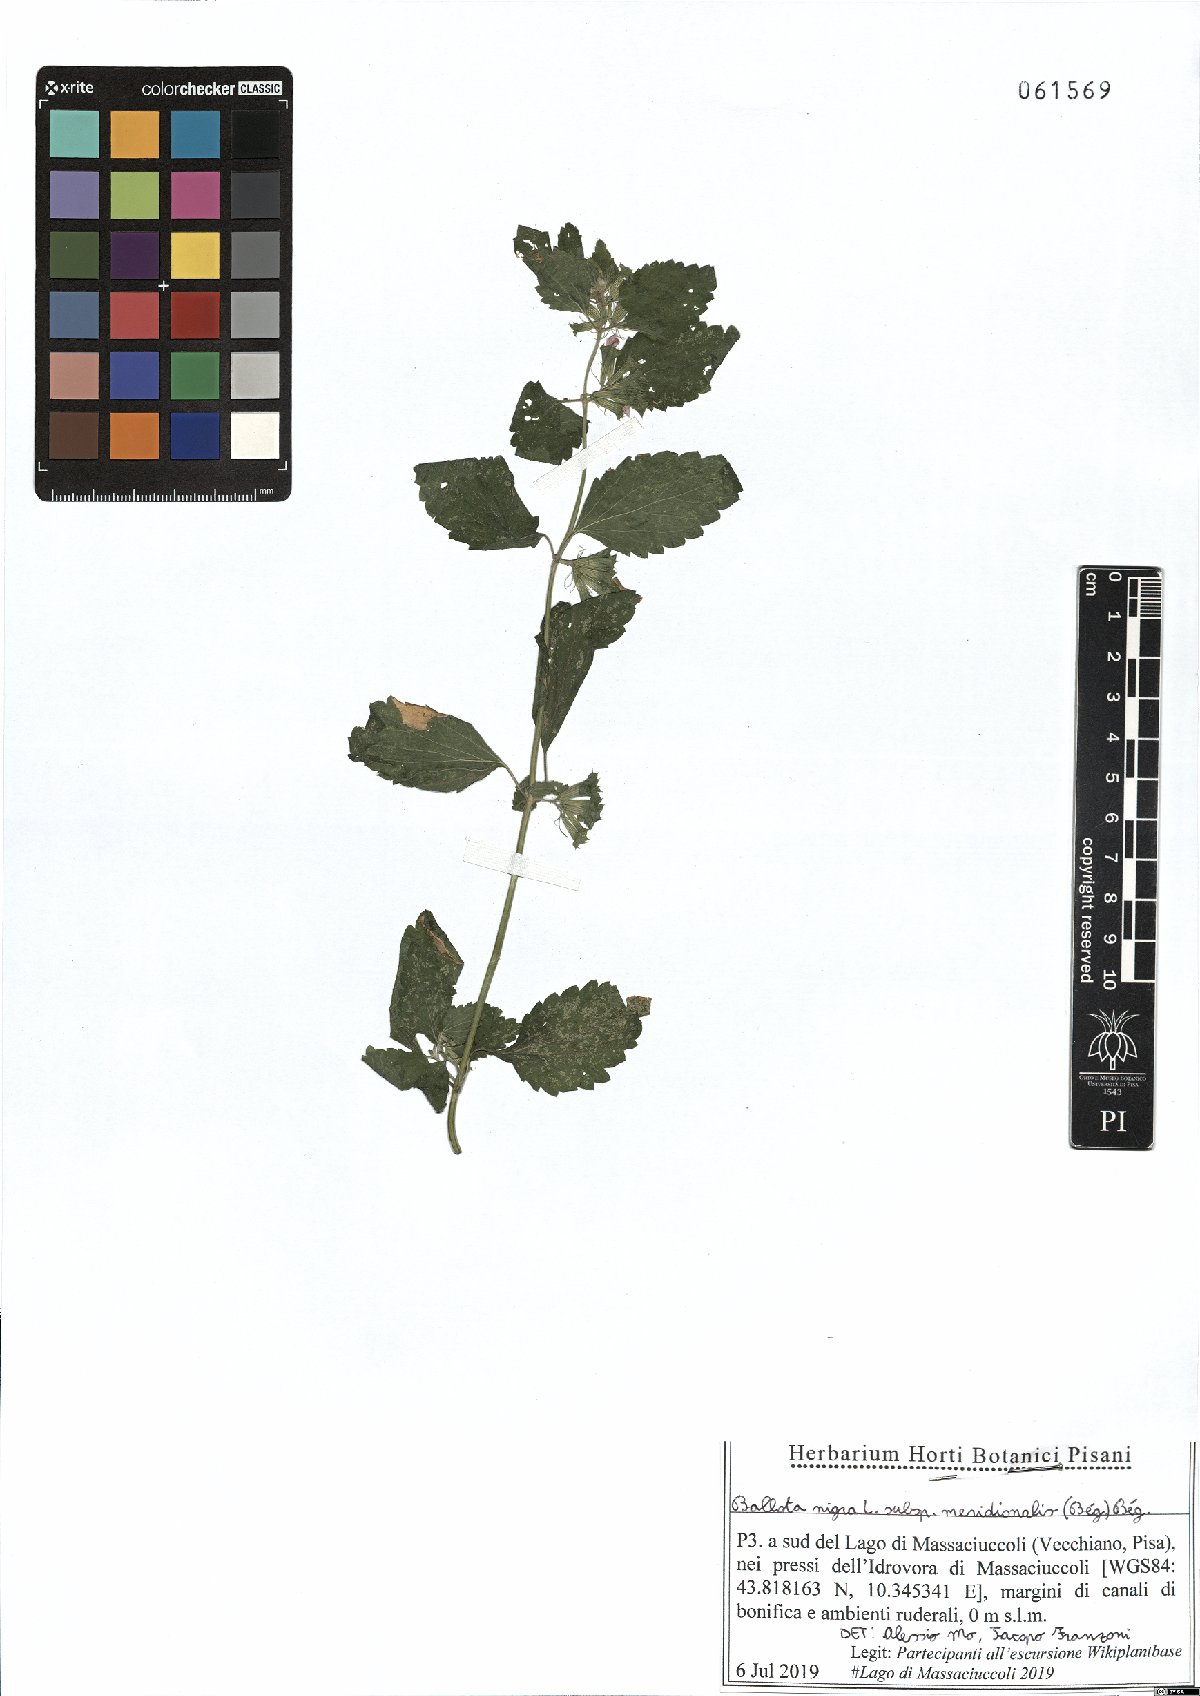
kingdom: Plantae
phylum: Tracheophyta
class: Magnoliopsida
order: Lamiales
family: Lamiaceae
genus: Ballota
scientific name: Ballota nigra
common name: Black horehound
